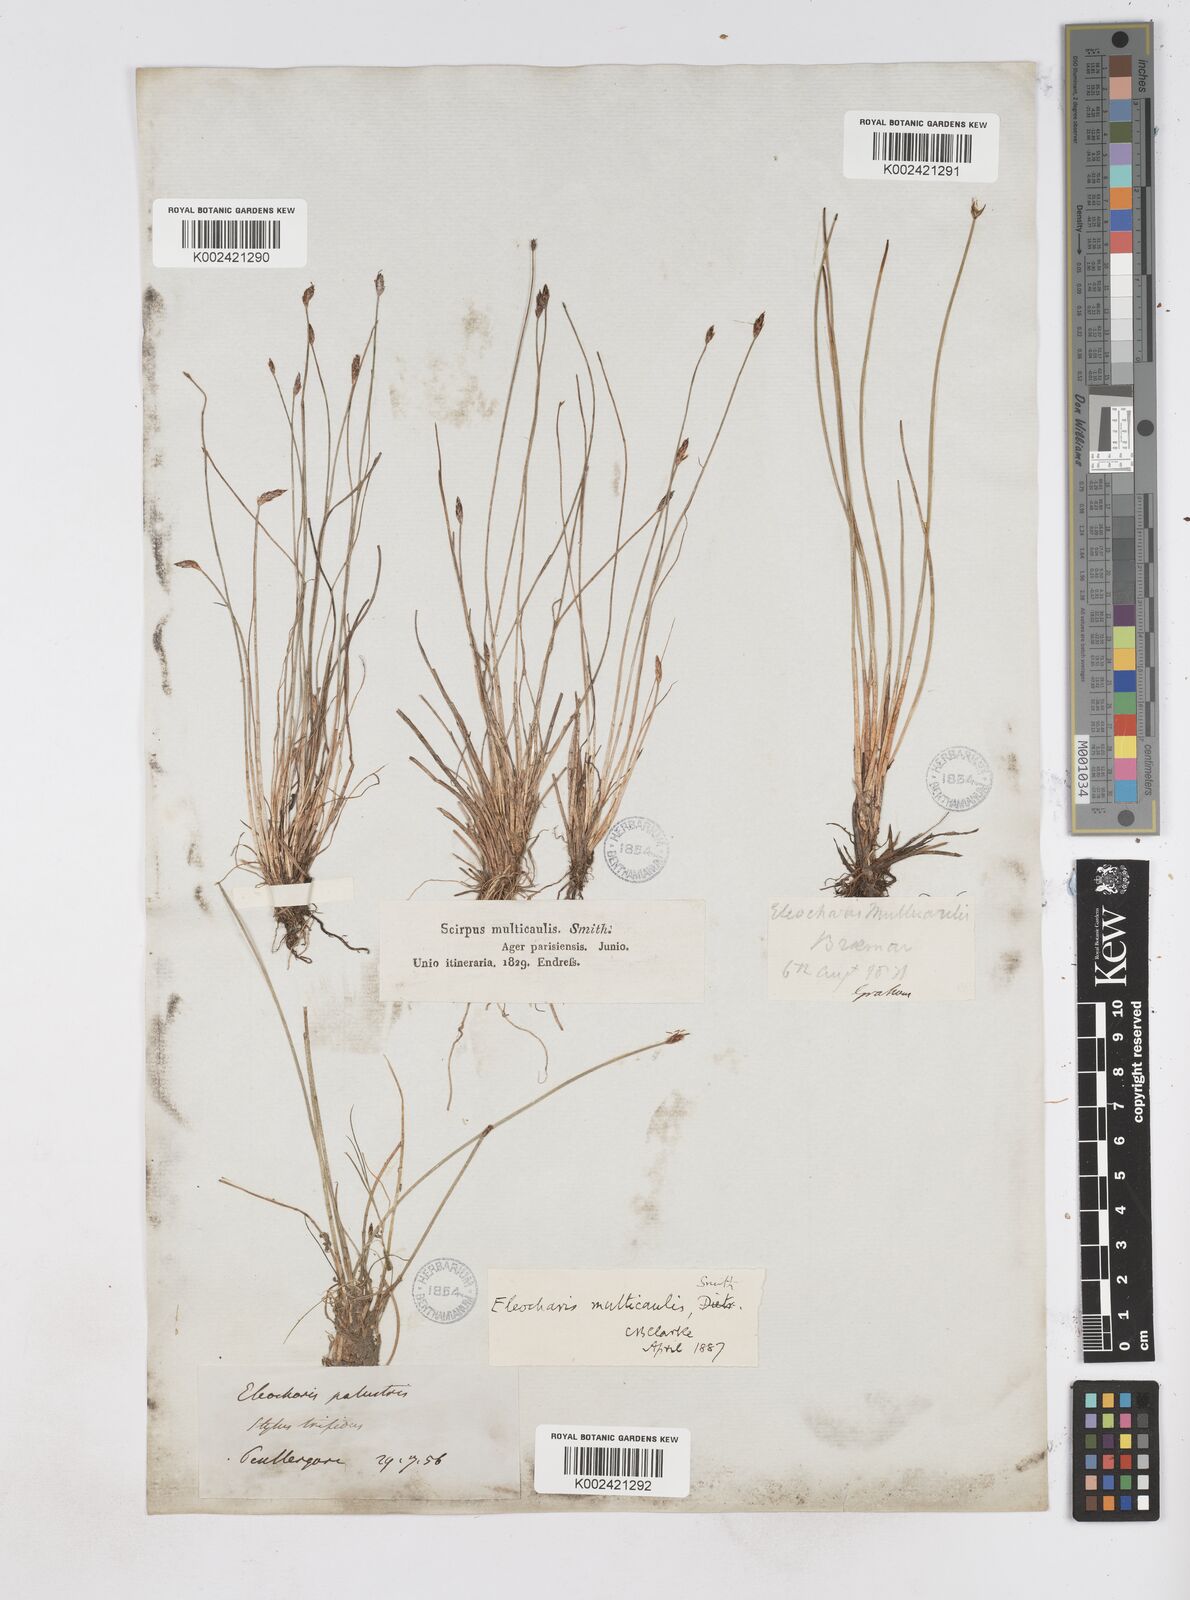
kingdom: Plantae
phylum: Tracheophyta
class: Liliopsida
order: Poales
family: Cyperaceae
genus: Eleocharis
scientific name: Eleocharis palustris
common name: Common spike-rush
